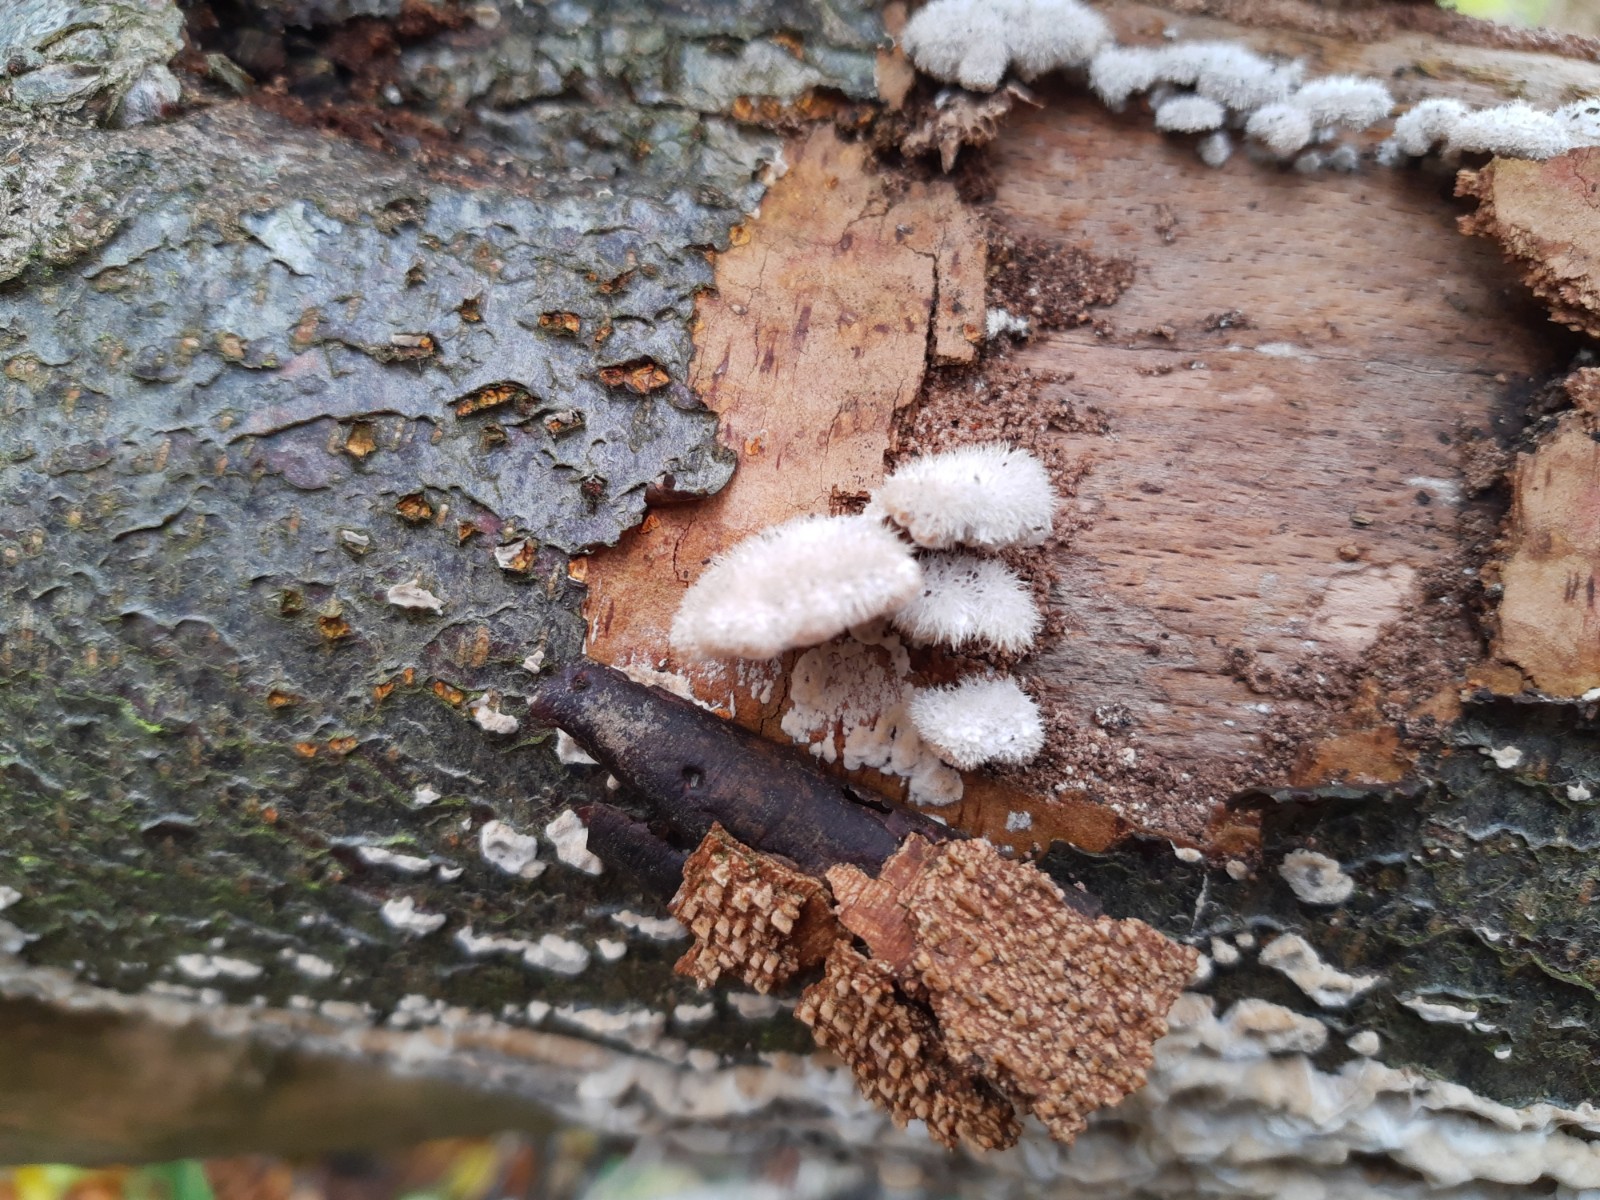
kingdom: Fungi
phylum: Basidiomycota
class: Agaricomycetes
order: Agaricales
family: Schizophyllaceae
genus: Schizophyllum
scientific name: Schizophyllum commune
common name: kløvblad
